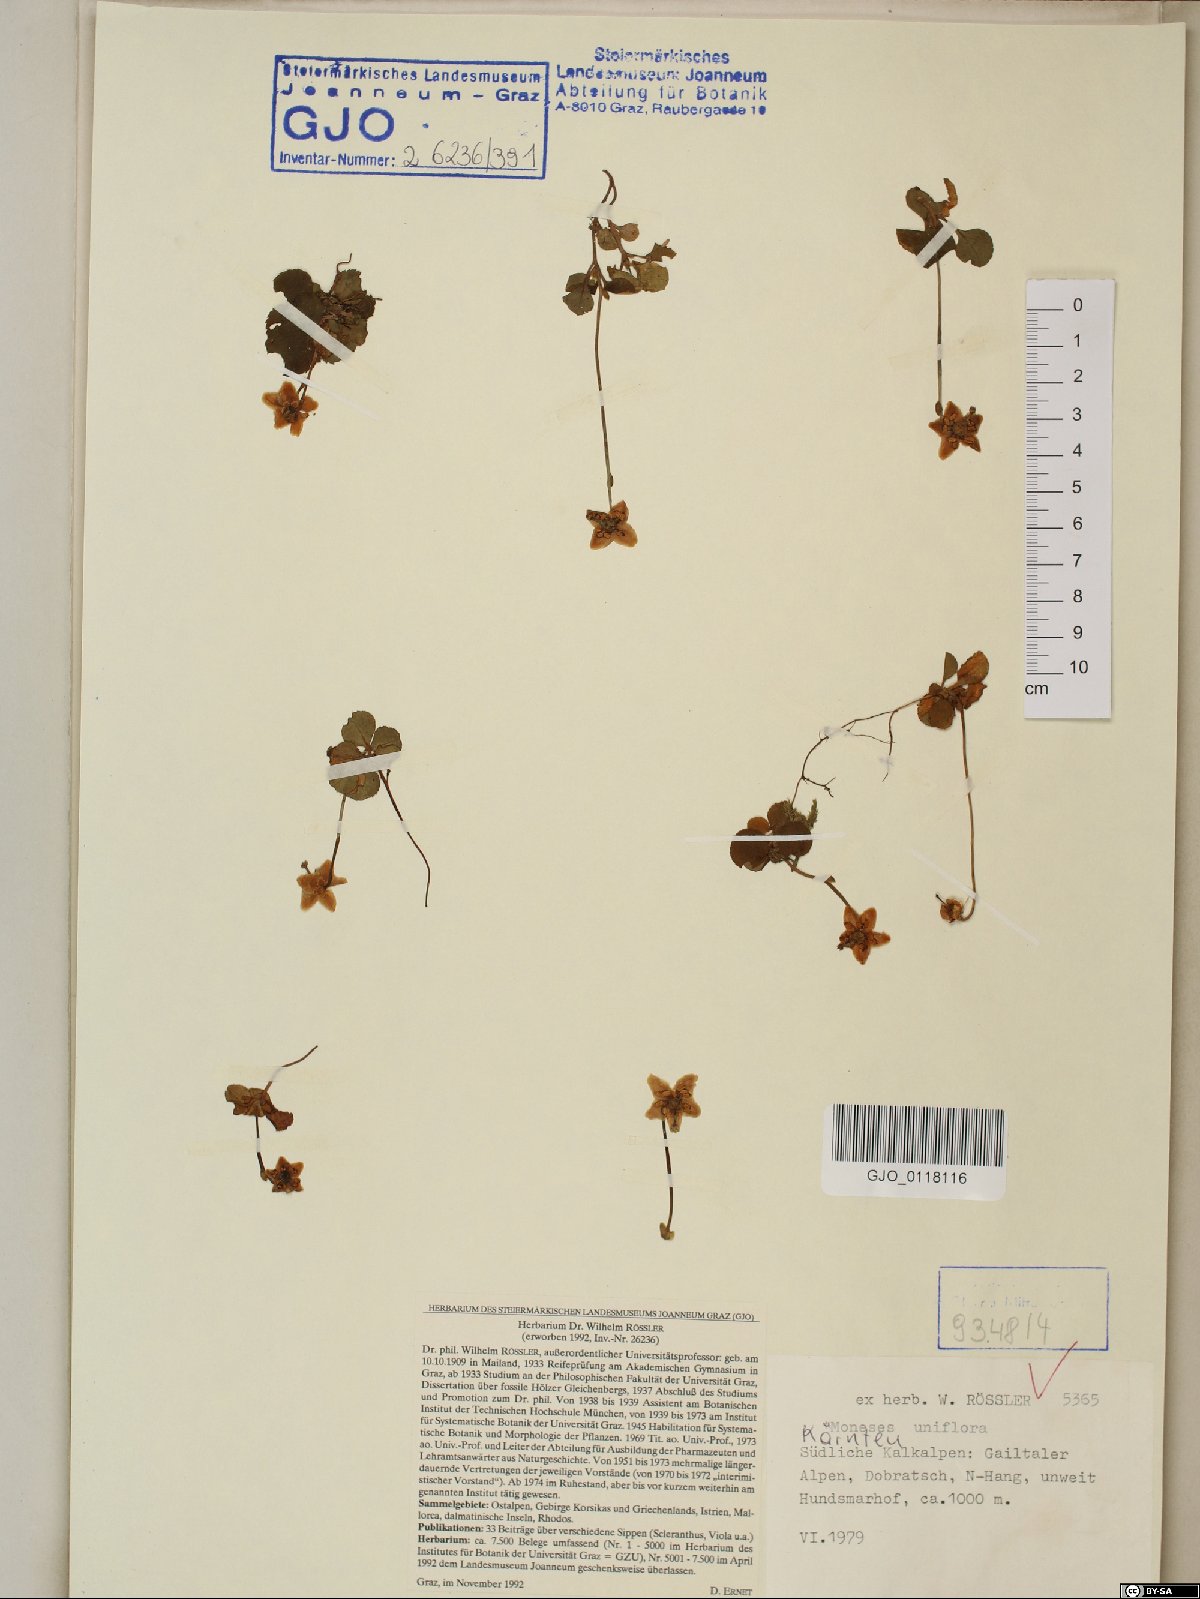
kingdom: Plantae
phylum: Tracheophyta
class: Magnoliopsida
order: Ericales
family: Ericaceae
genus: Moneses
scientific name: Moneses uniflora
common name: One-flowered wintergreen
